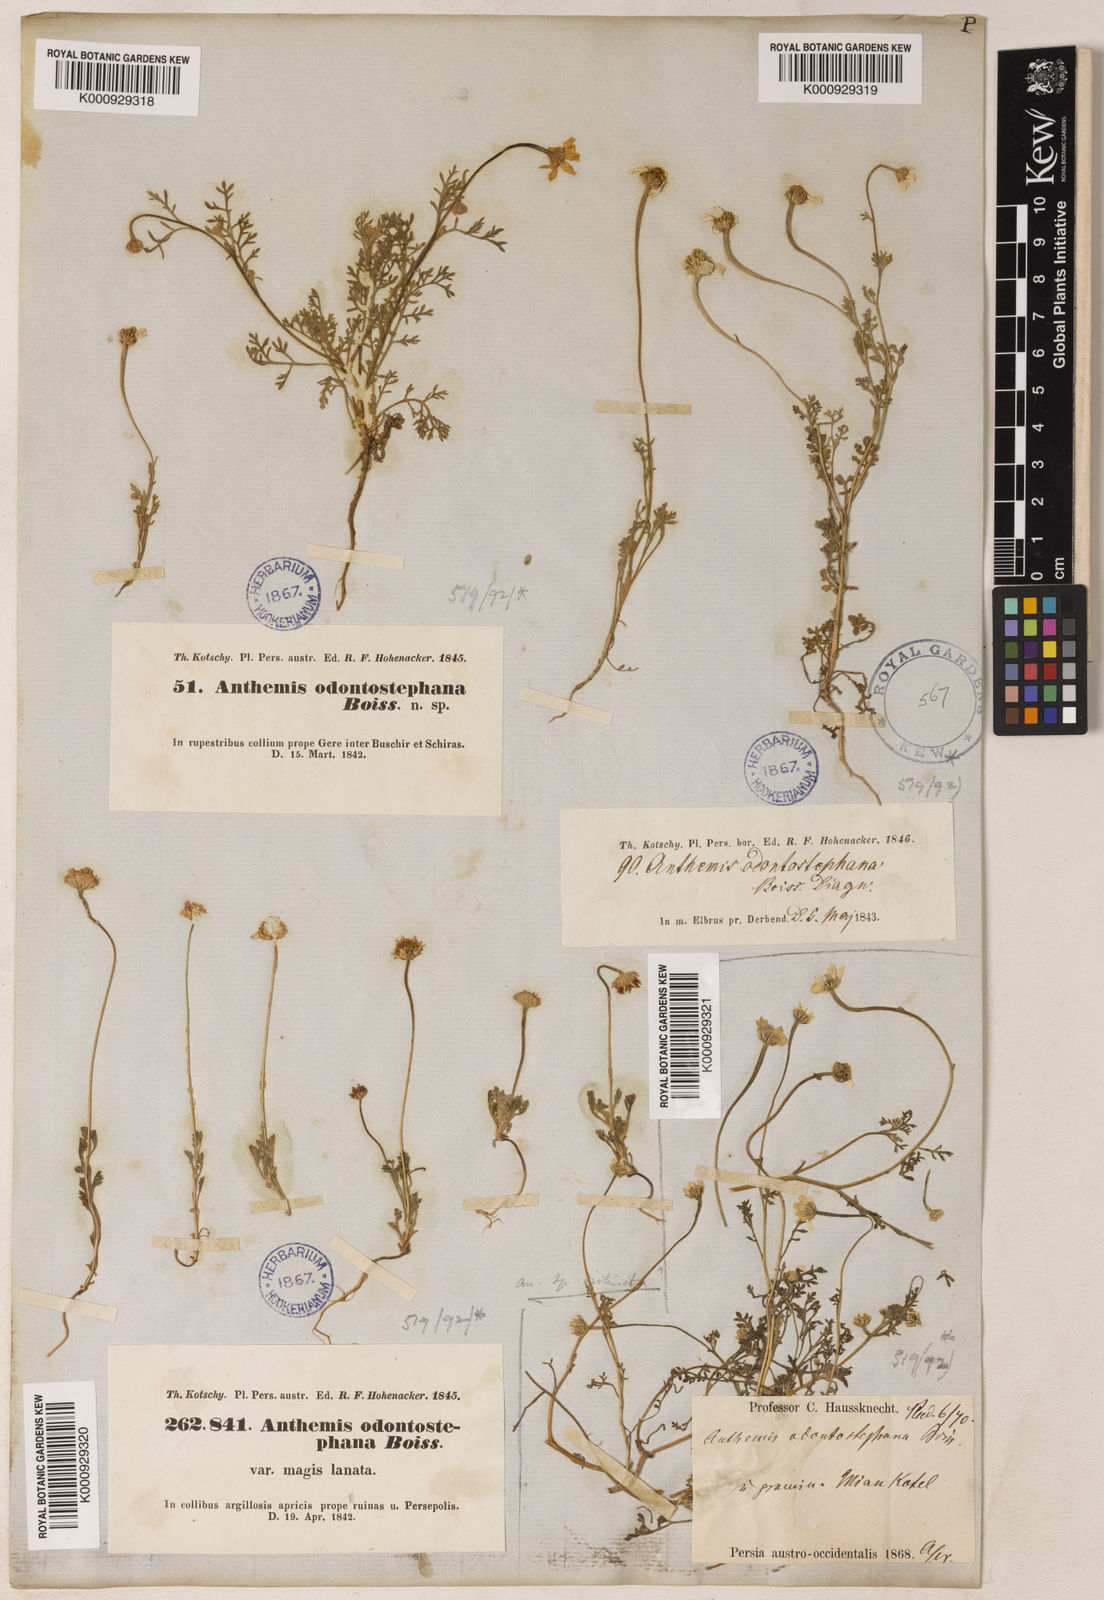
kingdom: Plantae
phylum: Tracheophyta
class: Magnoliopsida
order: Asterales
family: Asteraceae
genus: Anthemis
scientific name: Anthemis odontostephana
